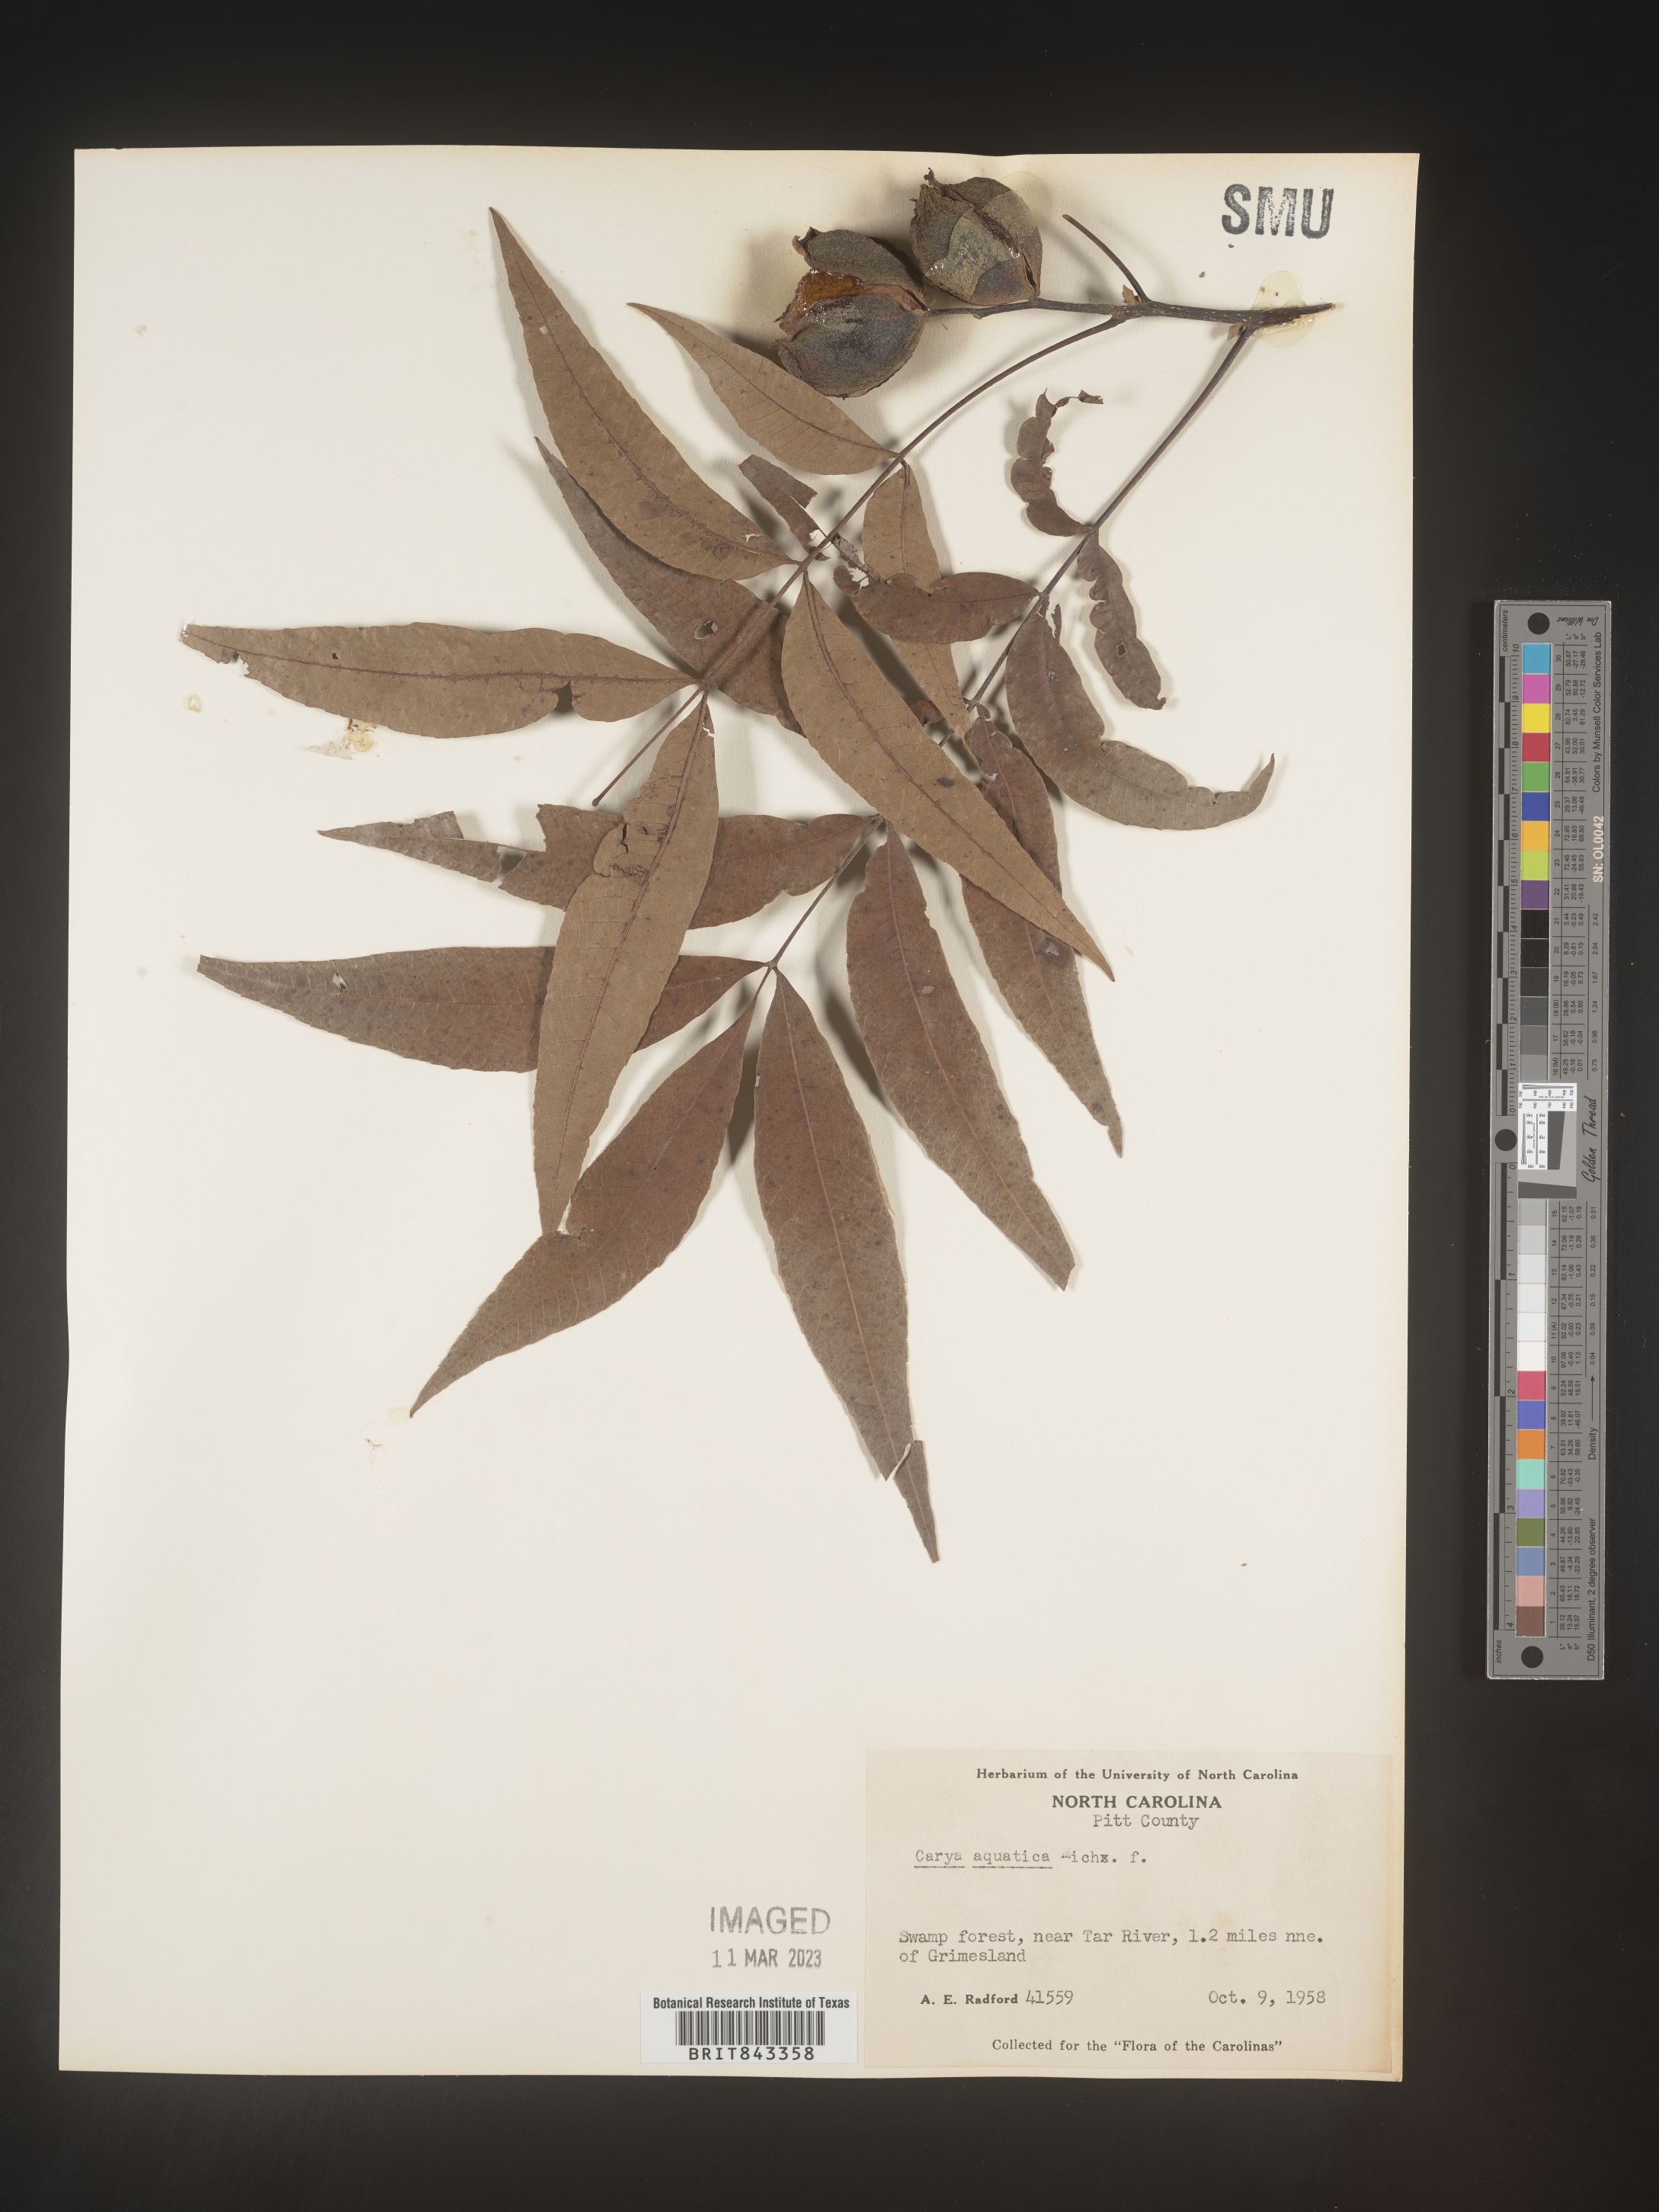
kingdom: Plantae
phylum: Tracheophyta
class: Magnoliopsida
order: Fagales
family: Juglandaceae
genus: Carya
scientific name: Carya aquatica
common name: Water hickory
